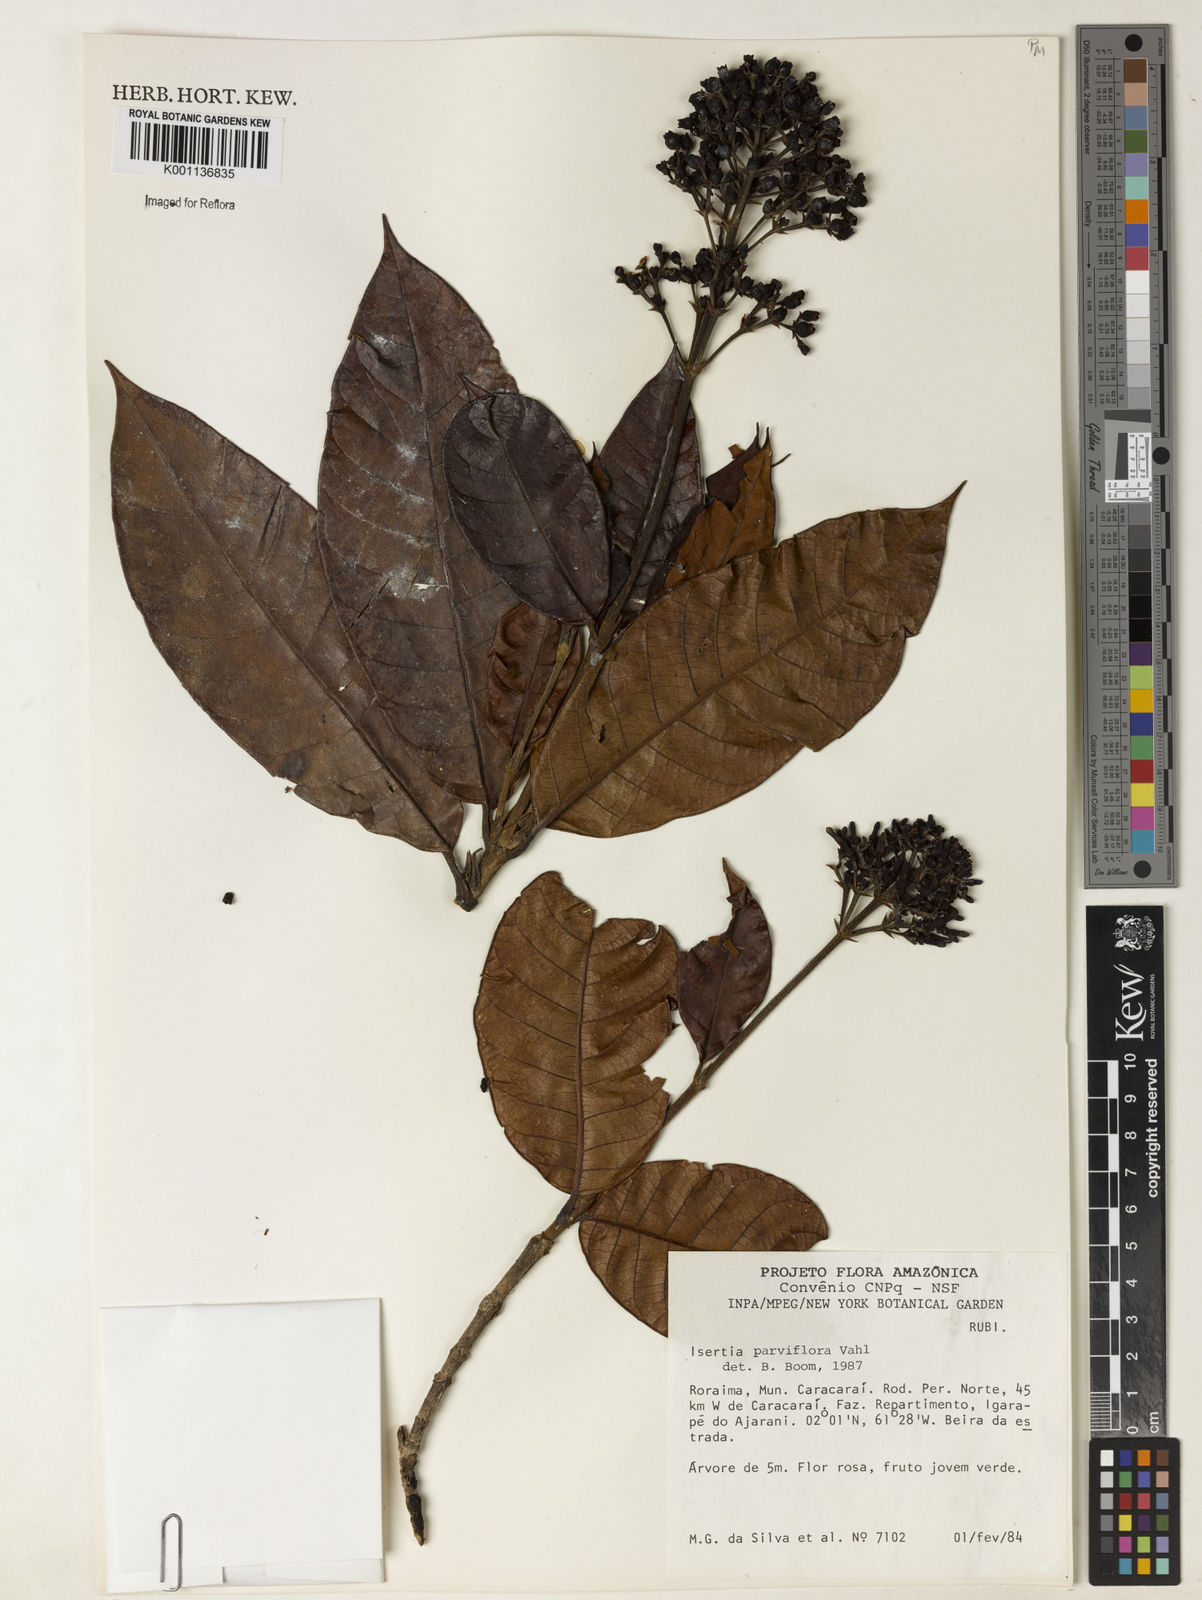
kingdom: Plantae
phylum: Tracheophyta
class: Magnoliopsida
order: Gentianales
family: Rubiaceae
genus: Isertia
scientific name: Isertia parviflora
